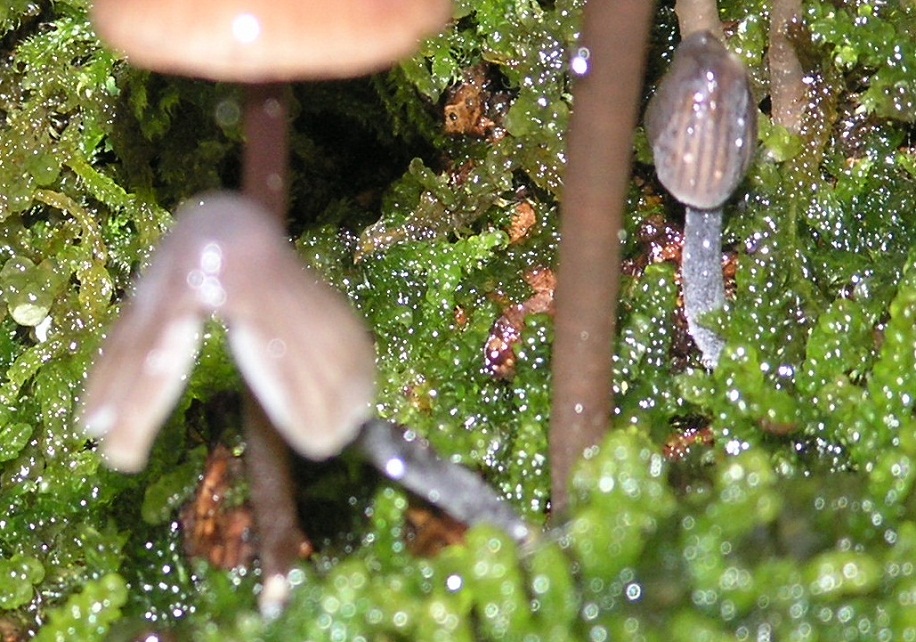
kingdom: Fungi
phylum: Basidiomycota
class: Agaricomycetes
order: Agaricales
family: Mycenaceae
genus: Mycena
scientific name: Mycena
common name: huesvamp
